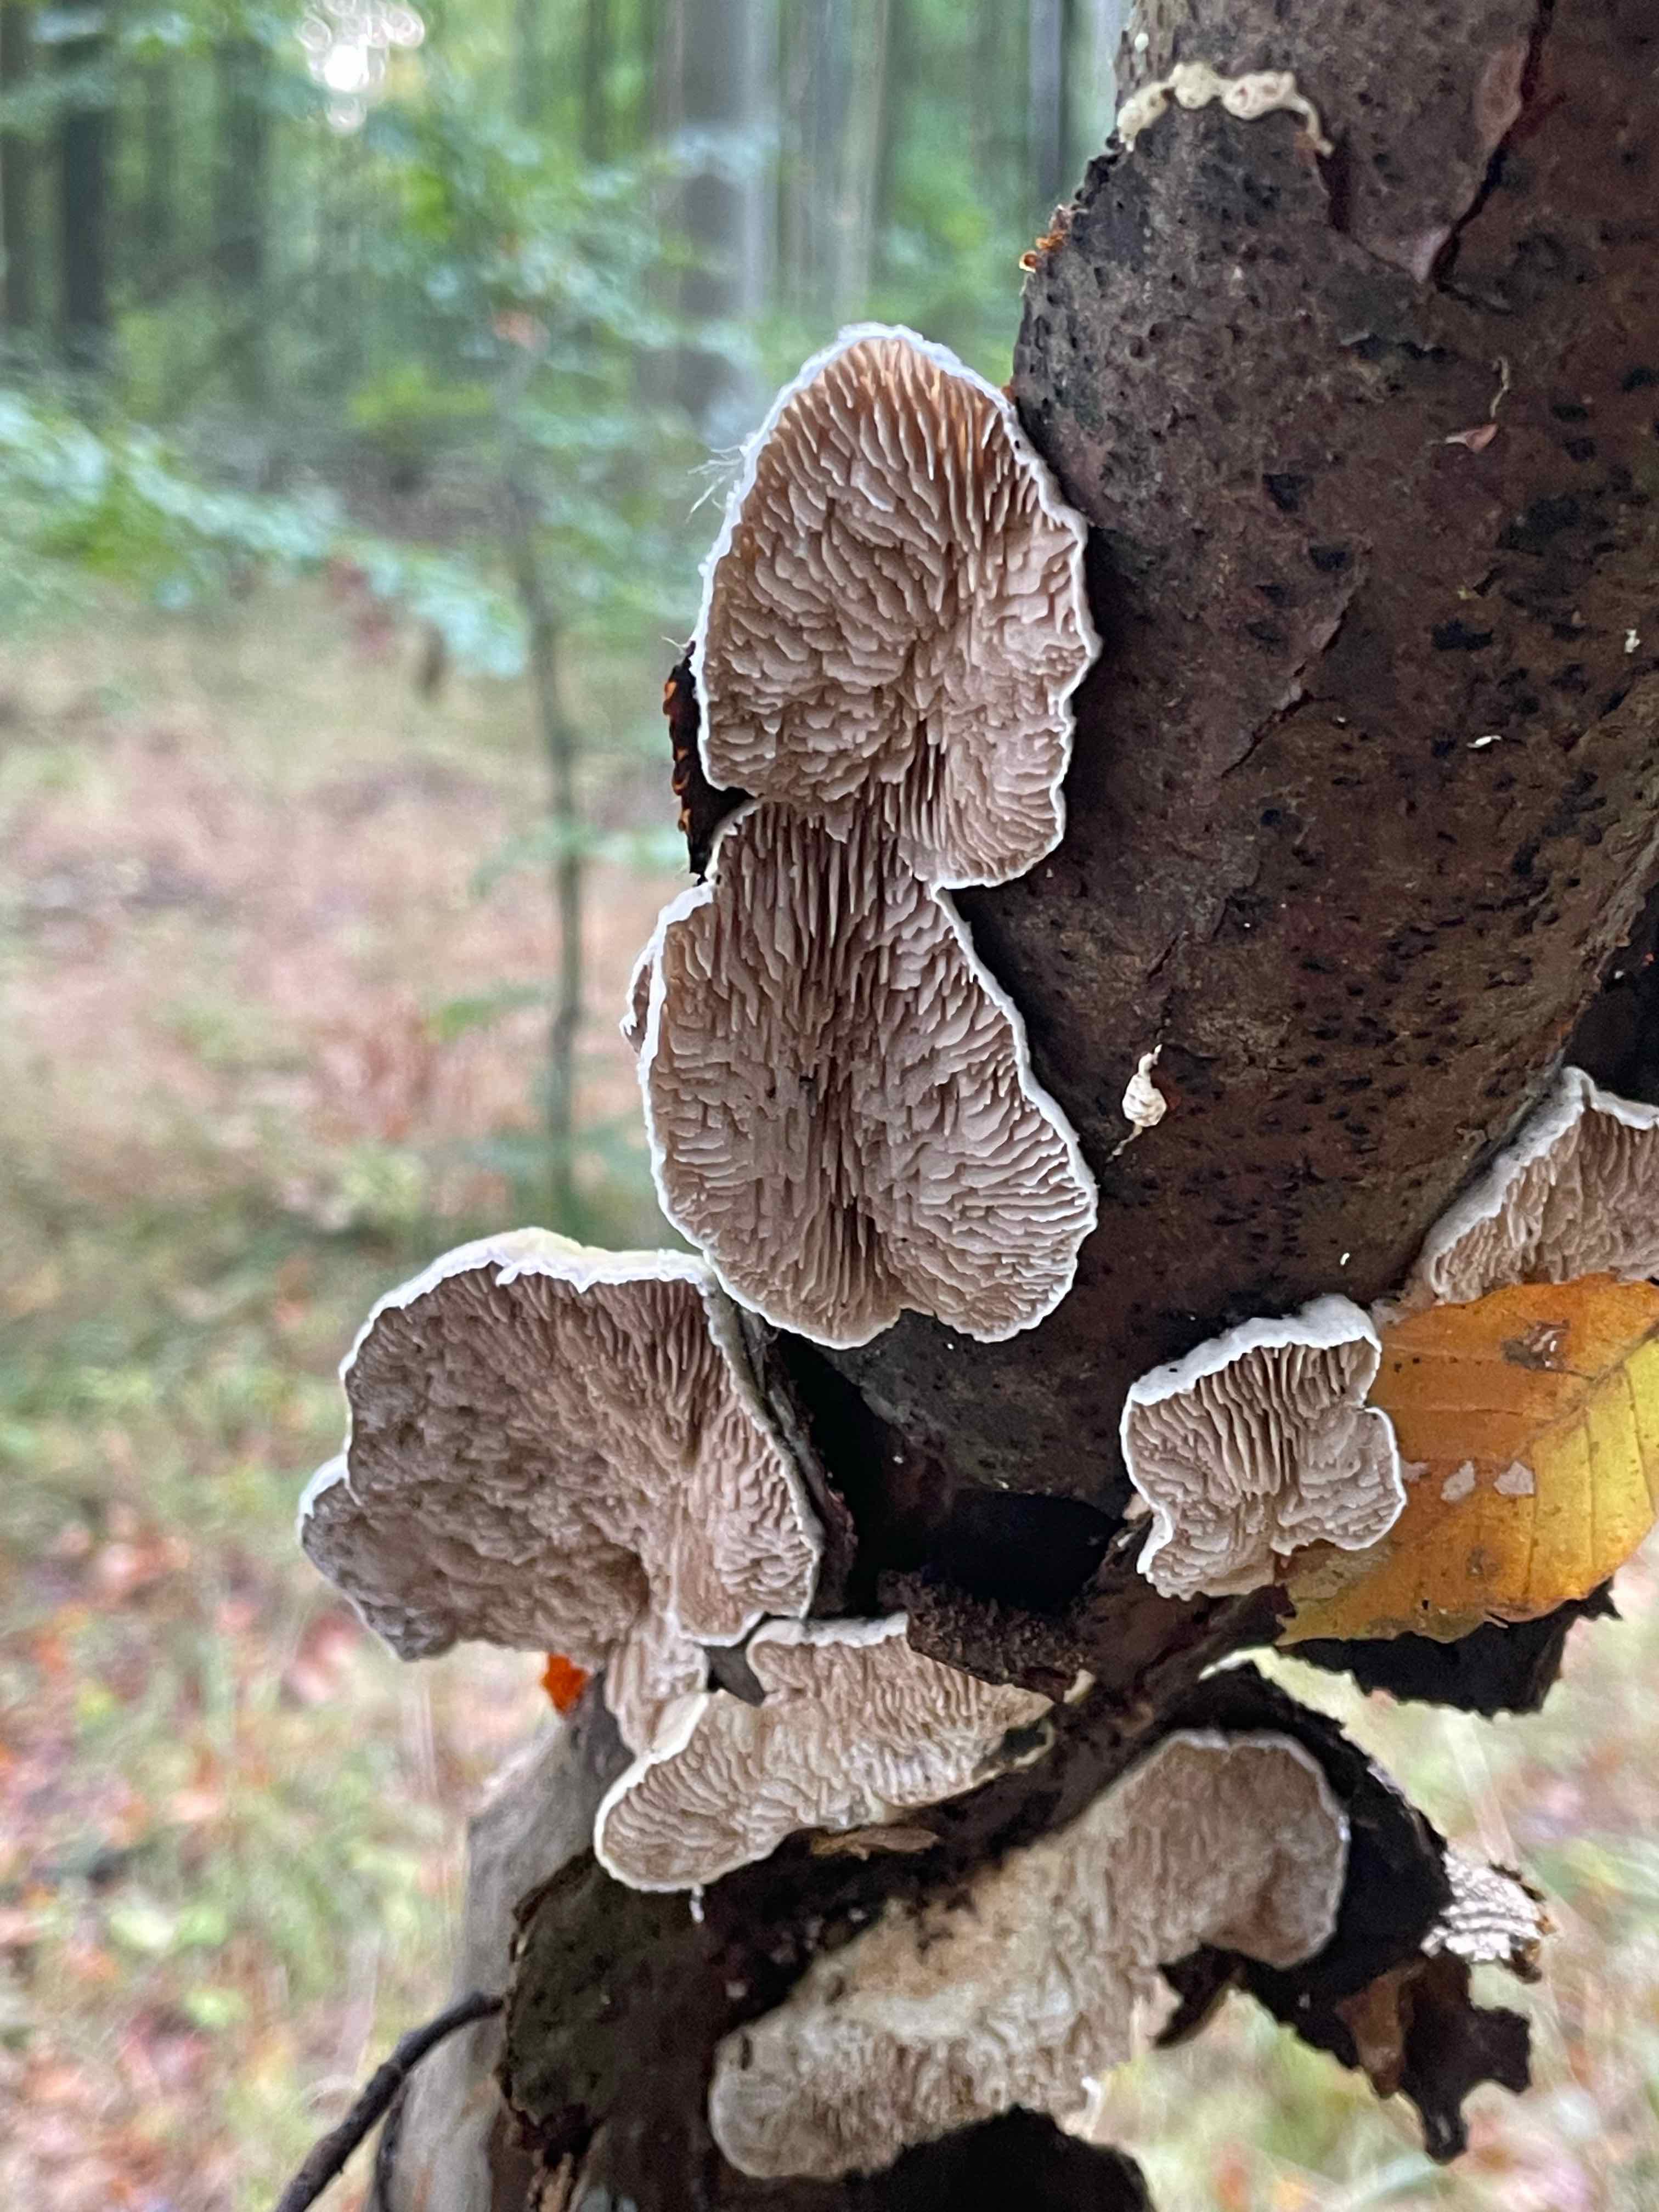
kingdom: Fungi
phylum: Basidiomycota
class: Agaricomycetes
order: Polyporales
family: Polyporaceae
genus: Lenzites
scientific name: Lenzites betulinus
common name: birke-læderporesvamp
